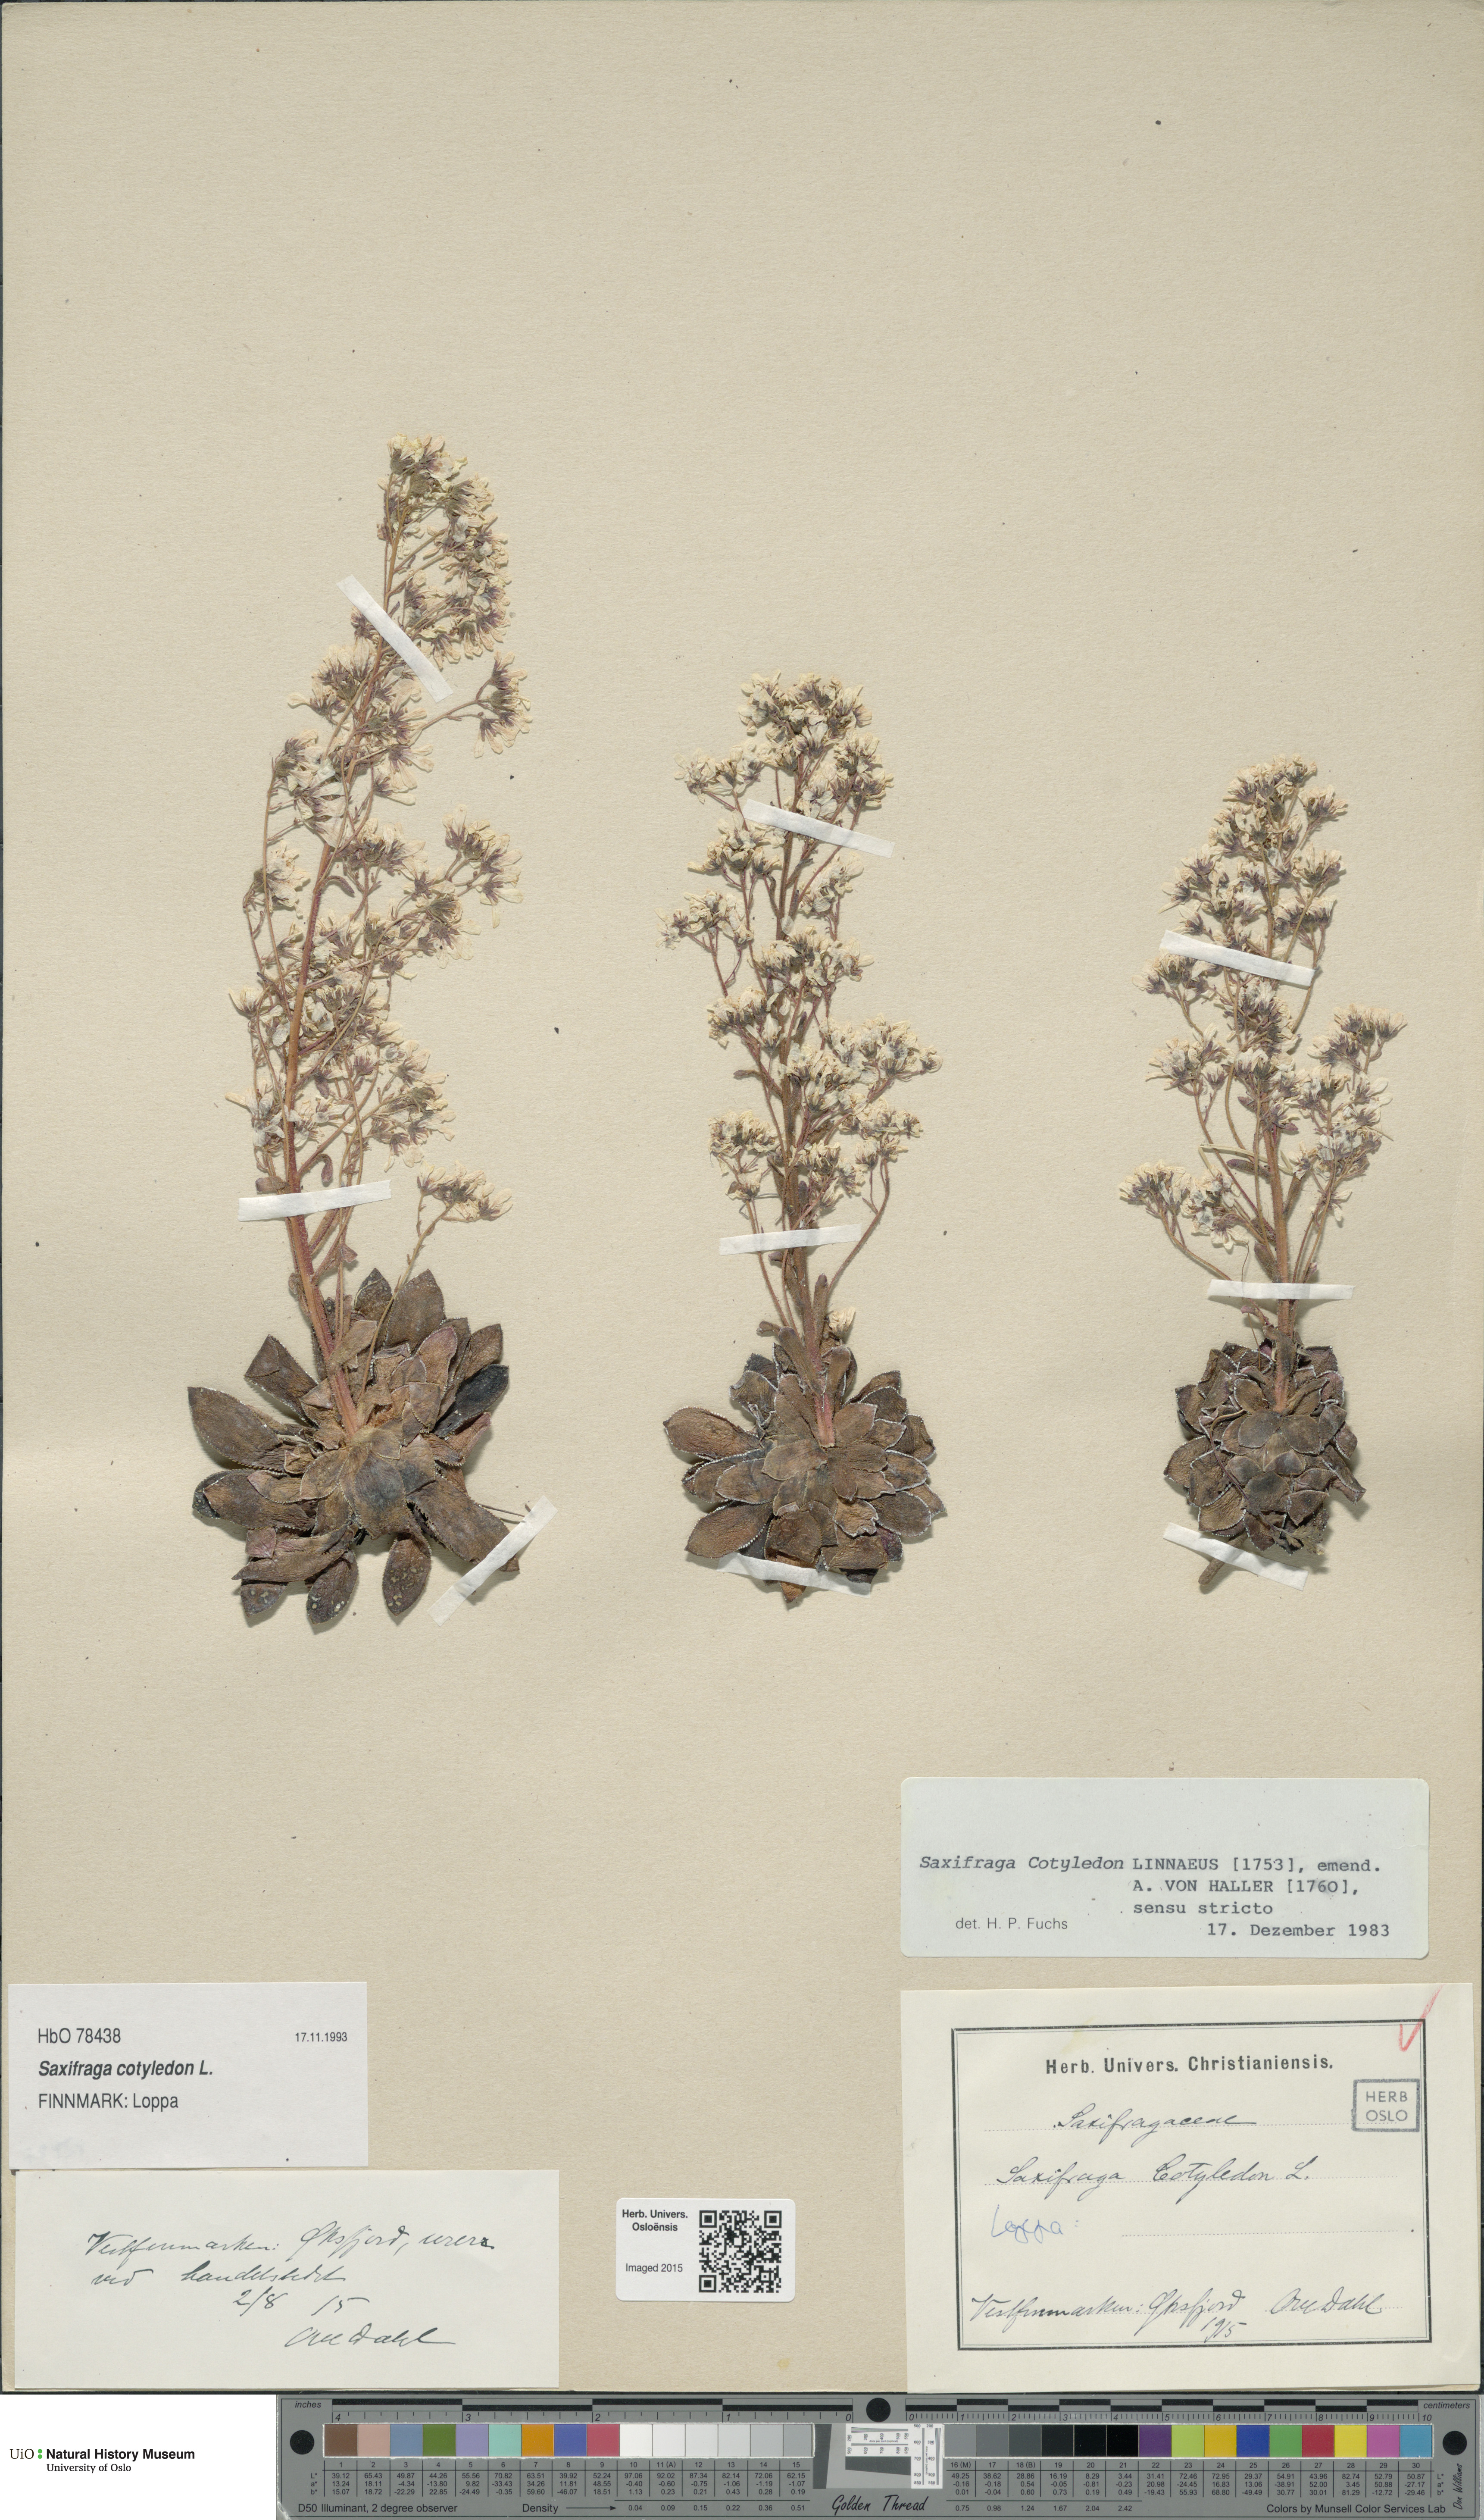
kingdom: Plantae
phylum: Tracheophyta
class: Magnoliopsida
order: Saxifragales
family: Saxifragaceae
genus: Saxifraga
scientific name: Saxifraga cotyledon
